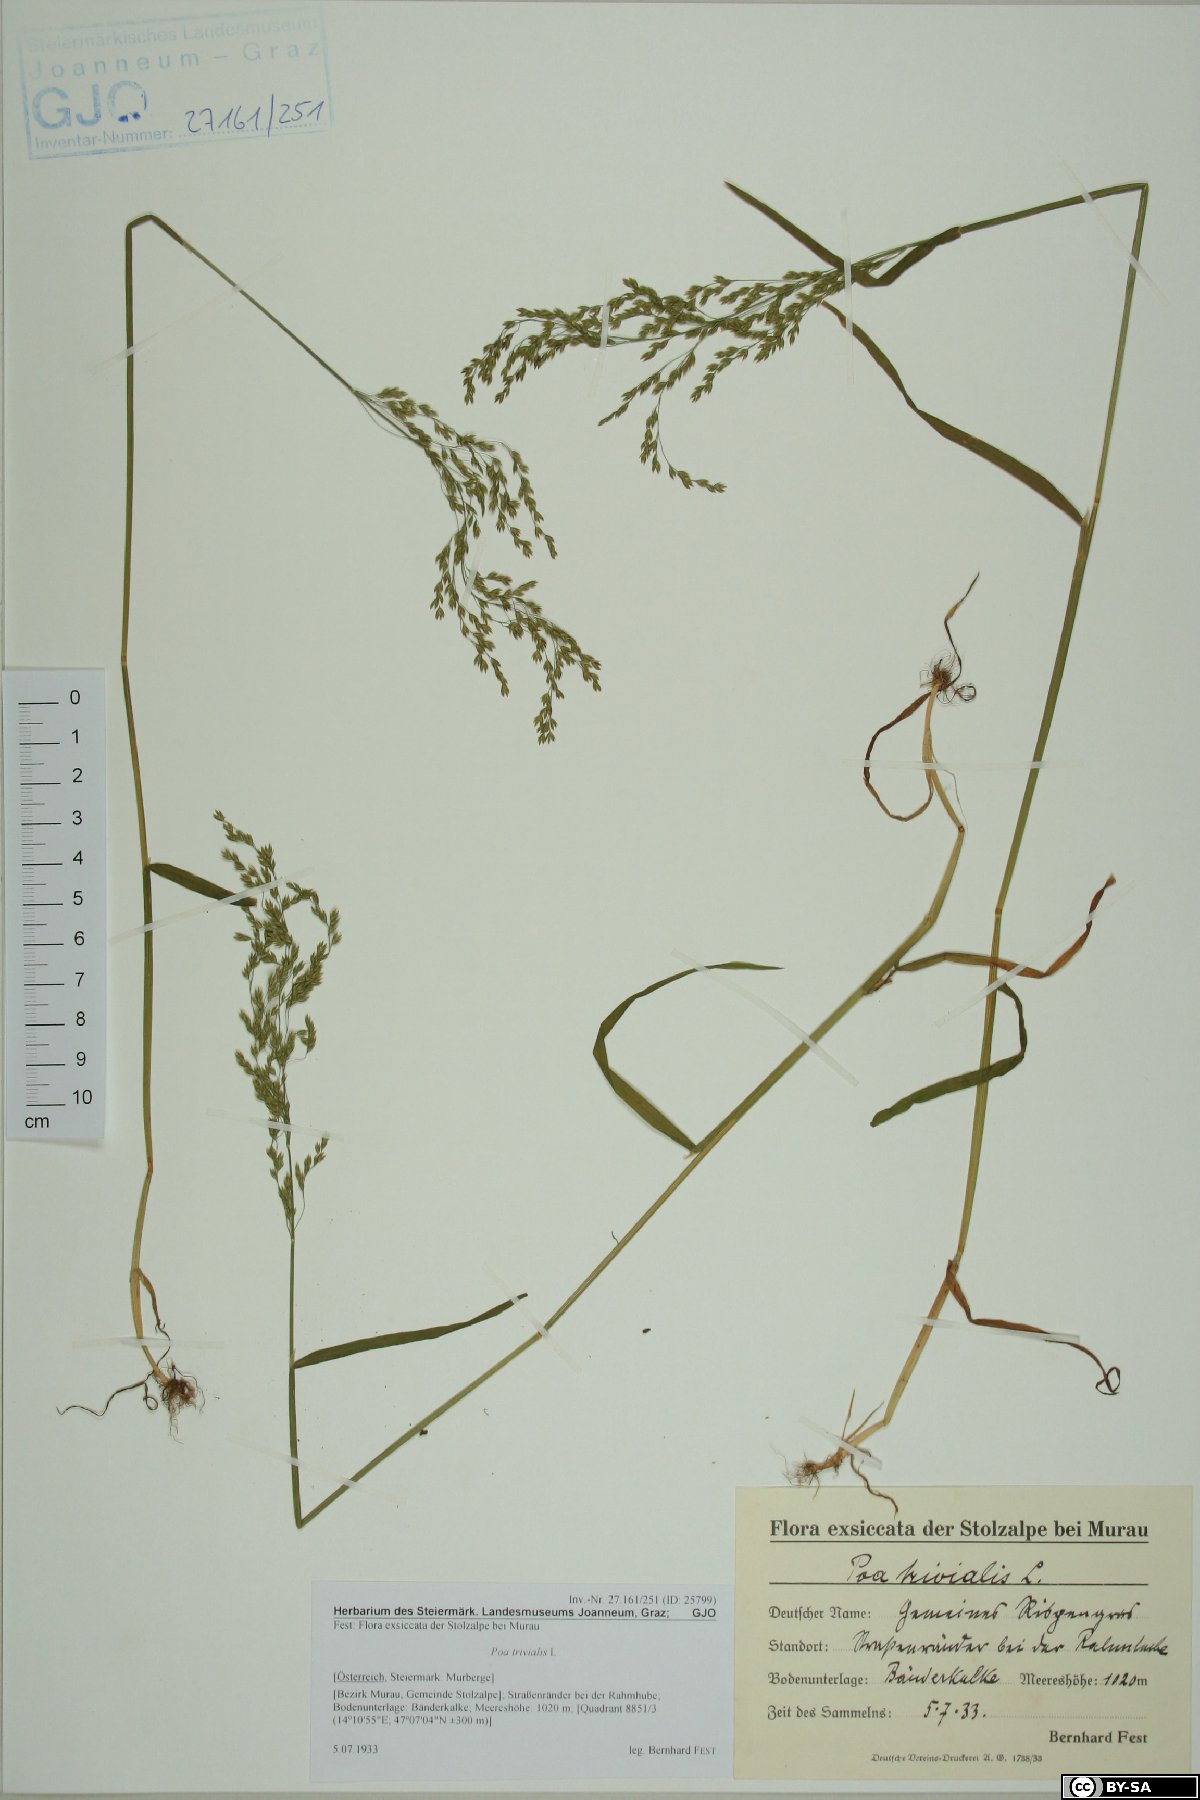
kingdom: Plantae
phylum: Tracheophyta
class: Liliopsida
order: Poales
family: Poaceae
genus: Poa
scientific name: Poa trivialis
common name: Rough bluegrass
